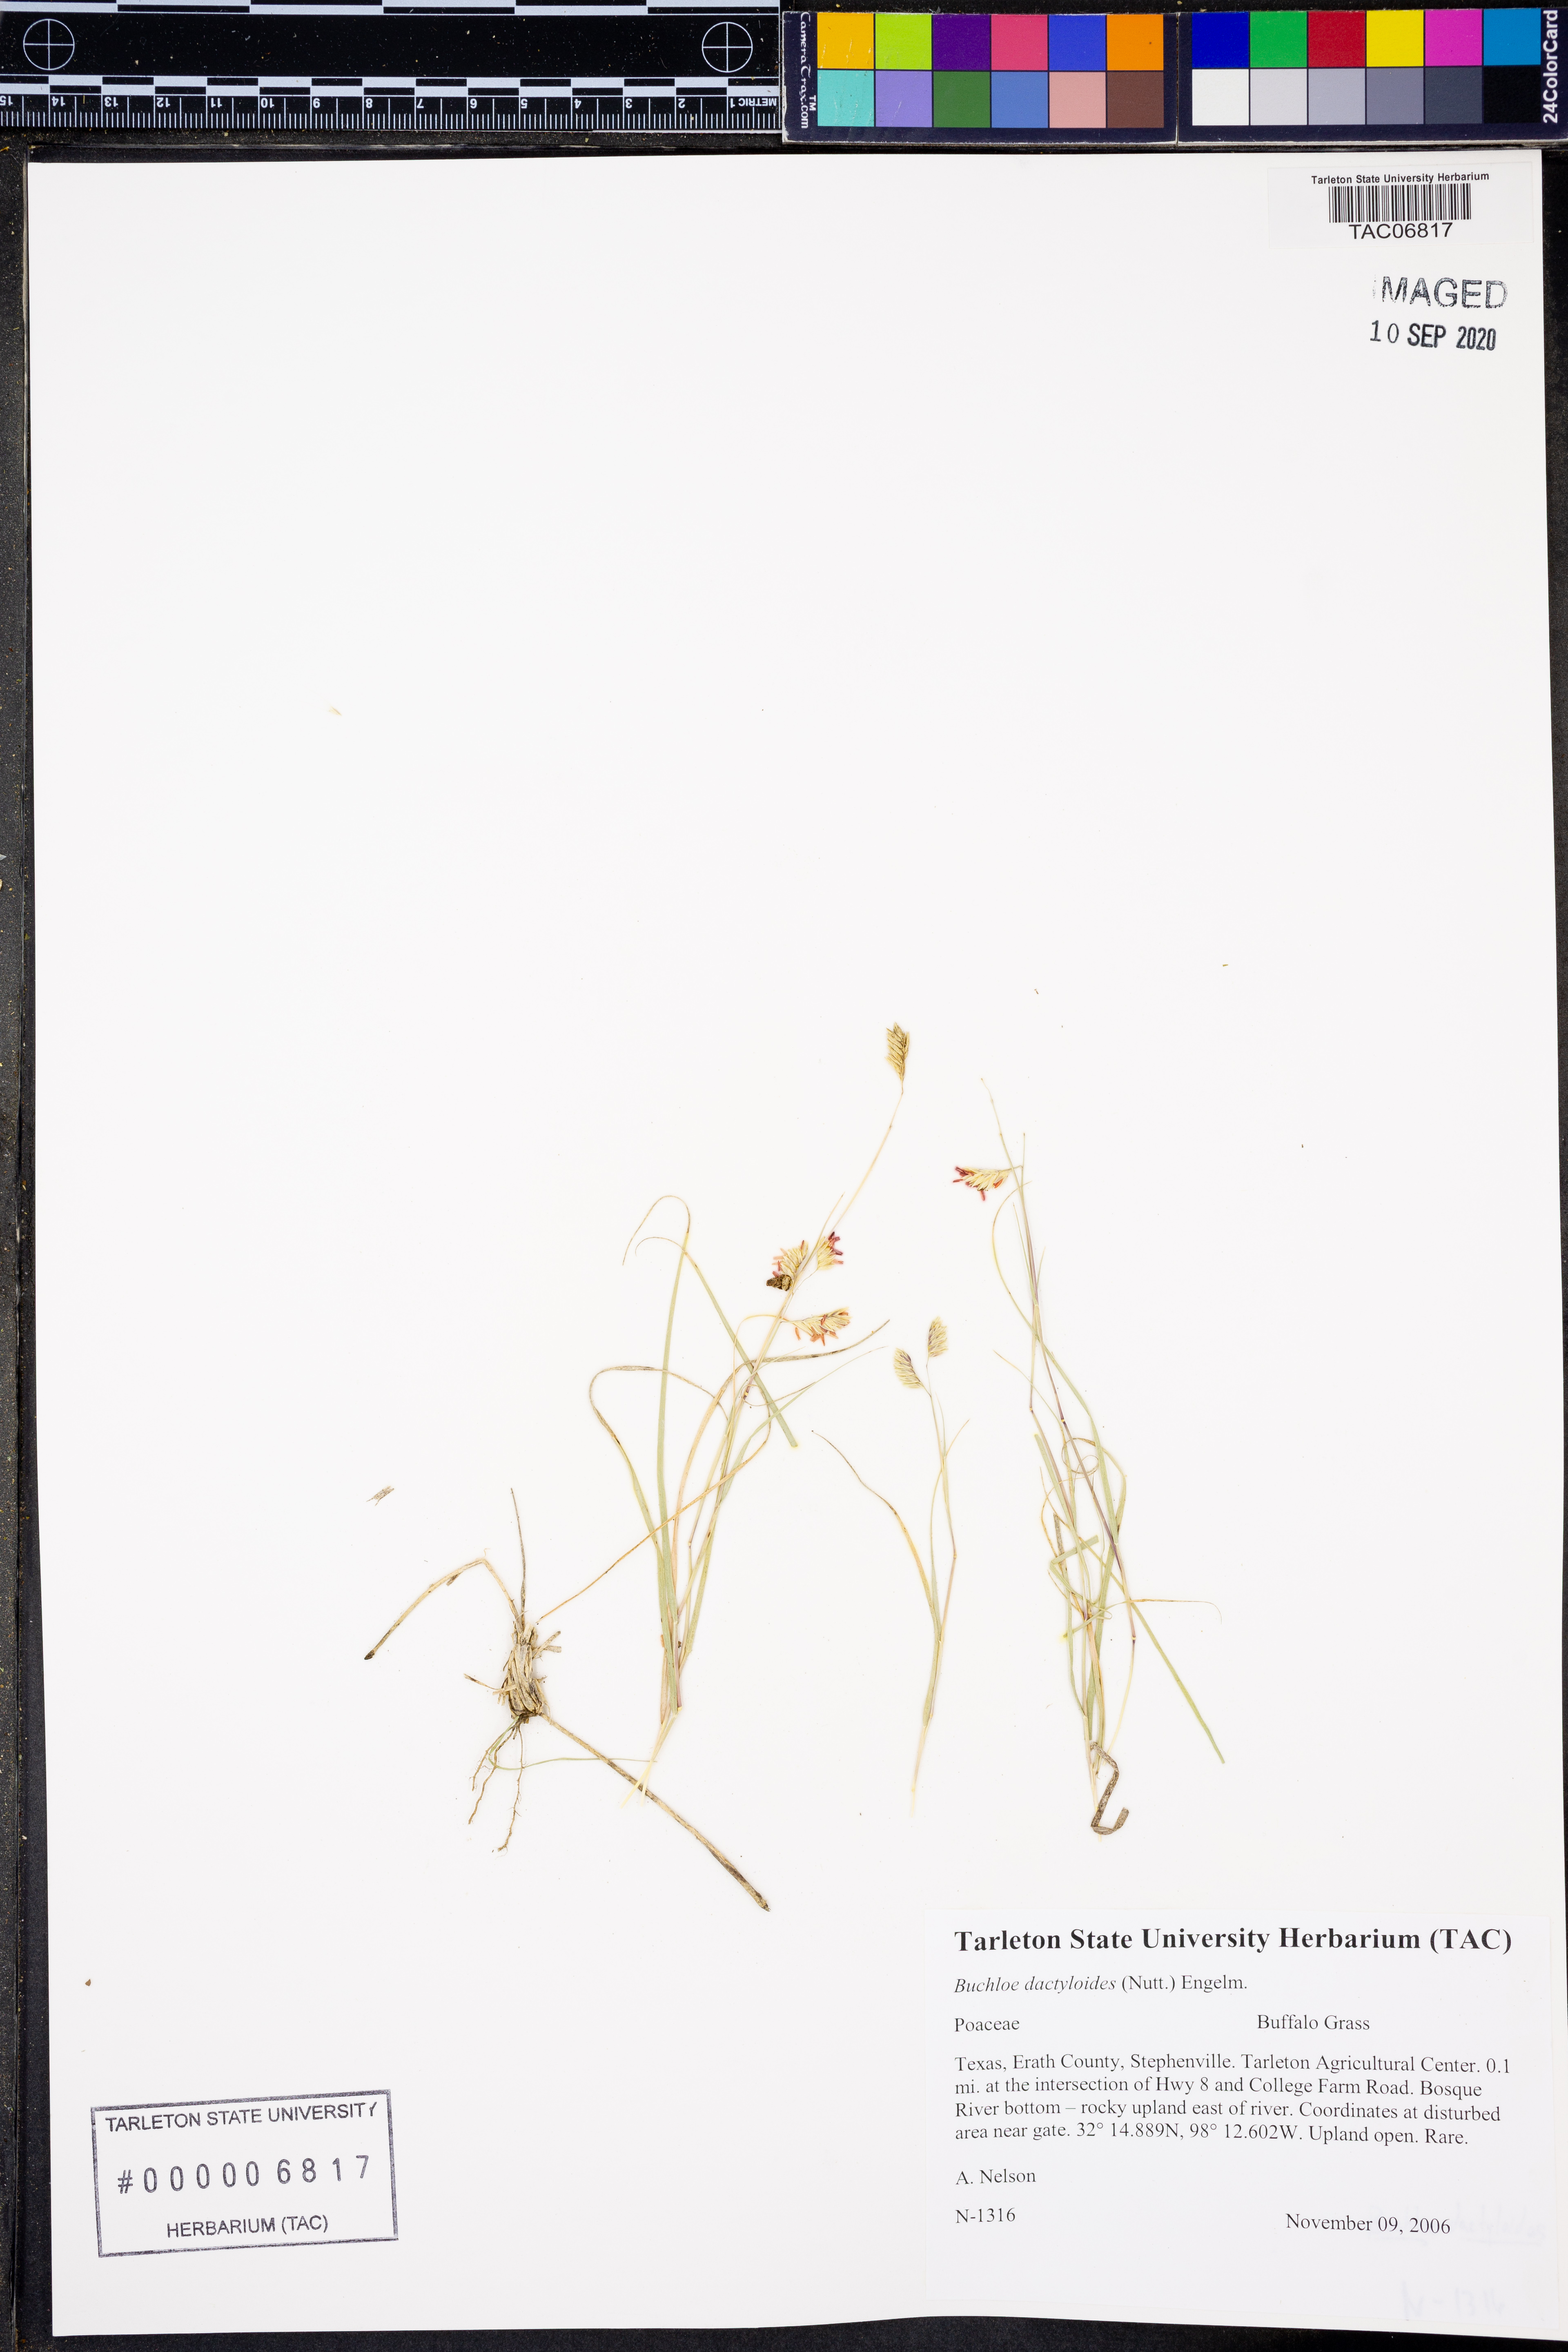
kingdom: Plantae
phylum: Tracheophyta
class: Liliopsida
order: Poales
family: Poaceae
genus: Bouteloua
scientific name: Bouteloua dactyloides
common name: Buffalo grass
